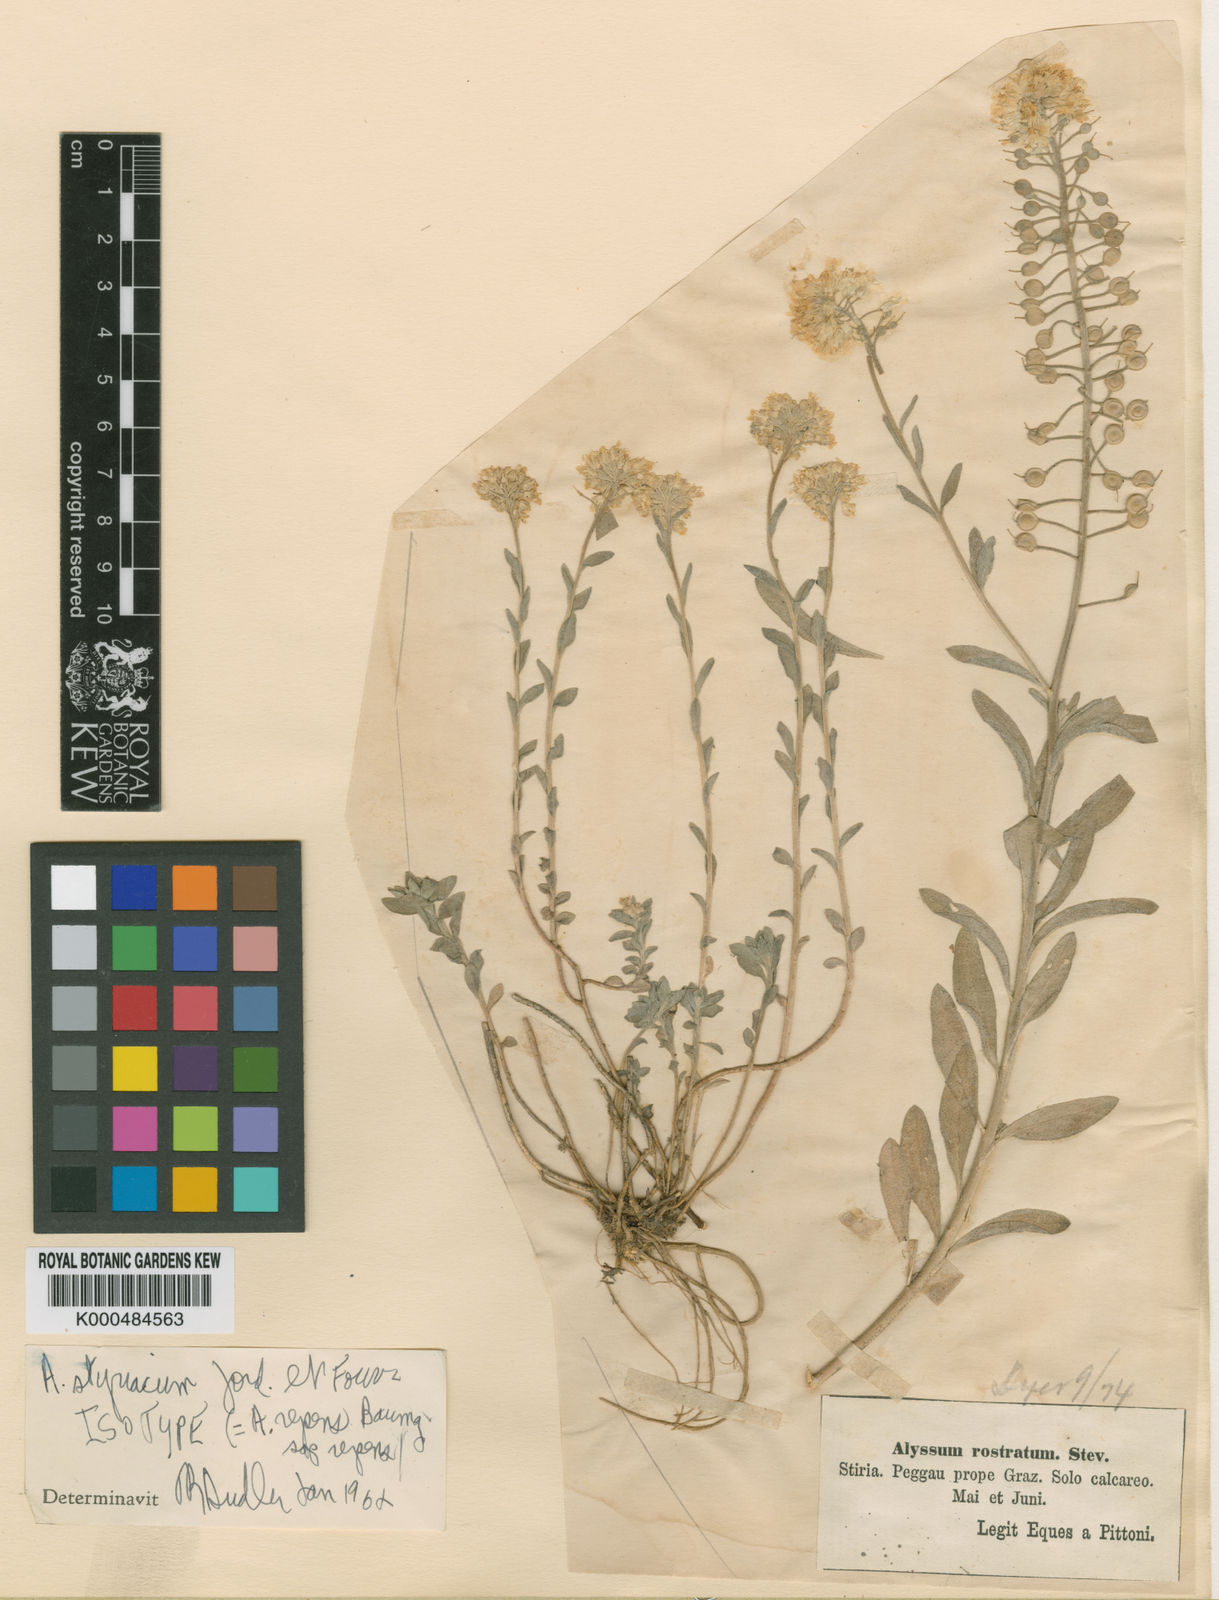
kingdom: Plantae
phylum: Tracheophyta
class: Magnoliopsida
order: Brassicales
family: Brassicaceae
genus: Alyssum
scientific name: Alyssum repens
